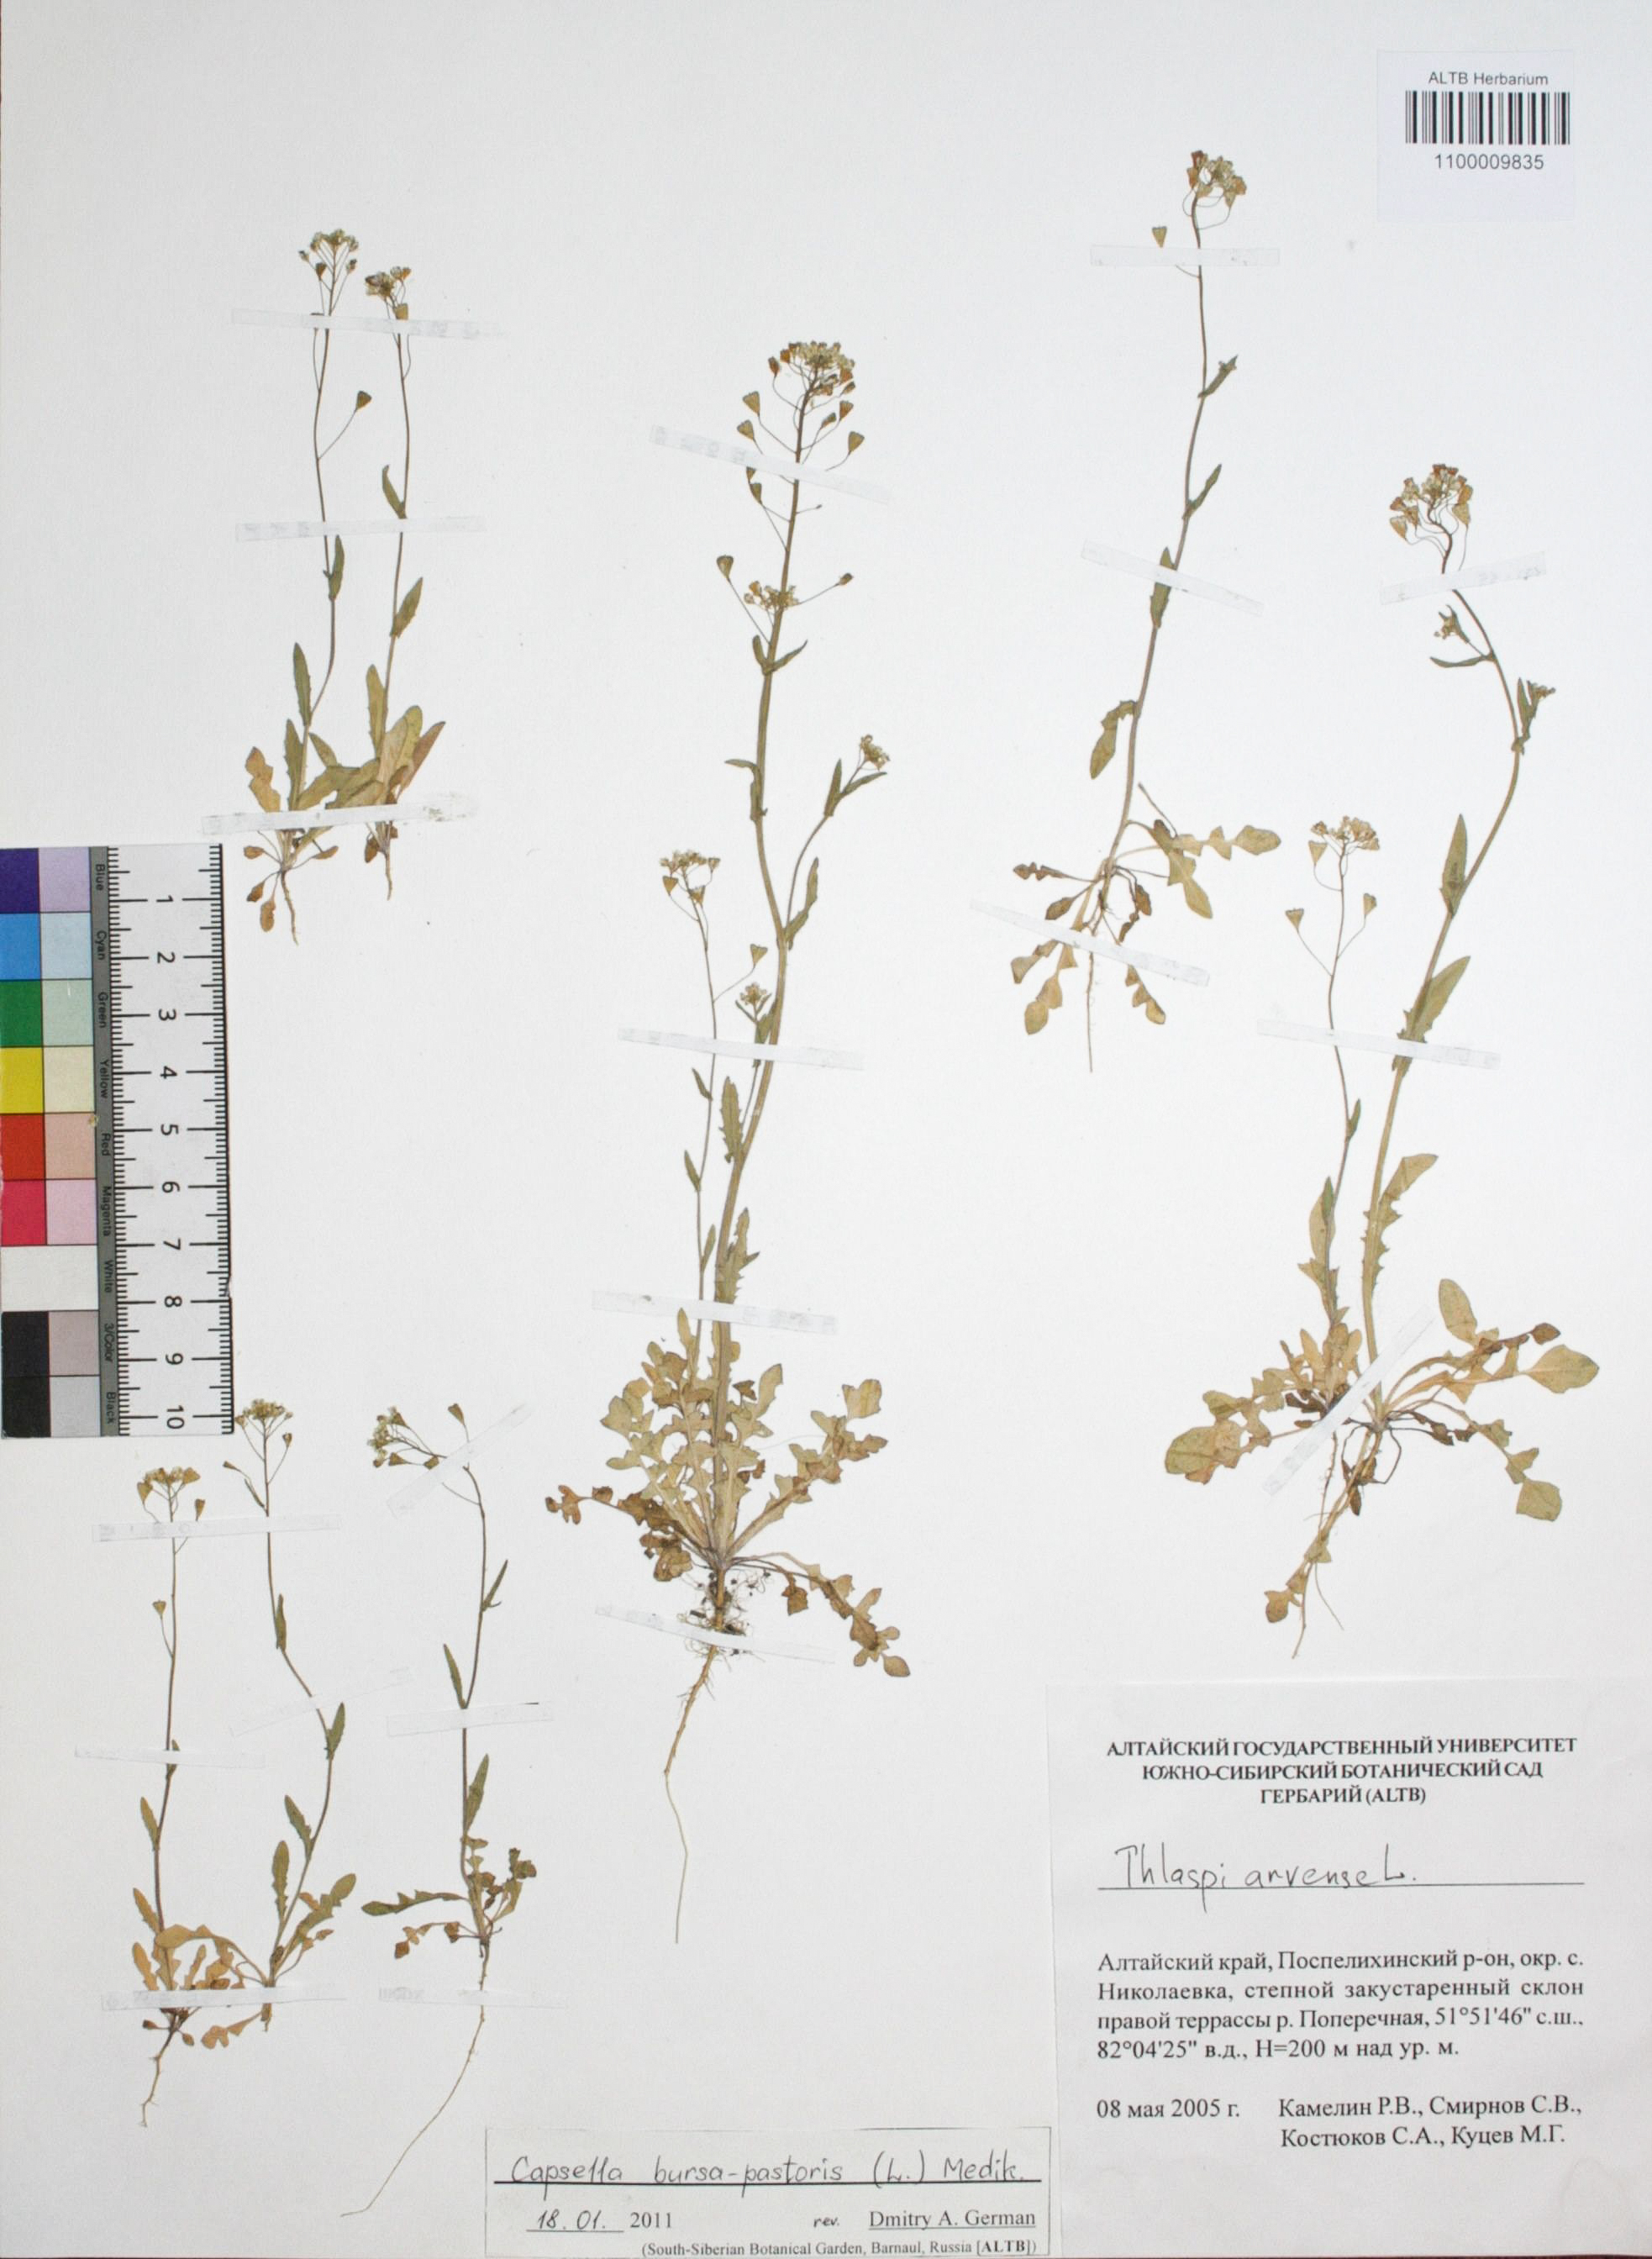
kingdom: Plantae
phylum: Tracheophyta
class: Magnoliopsida
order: Brassicales
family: Brassicaceae
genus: Capsella
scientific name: Capsella bursa-pastoris
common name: Shepherd's purse
